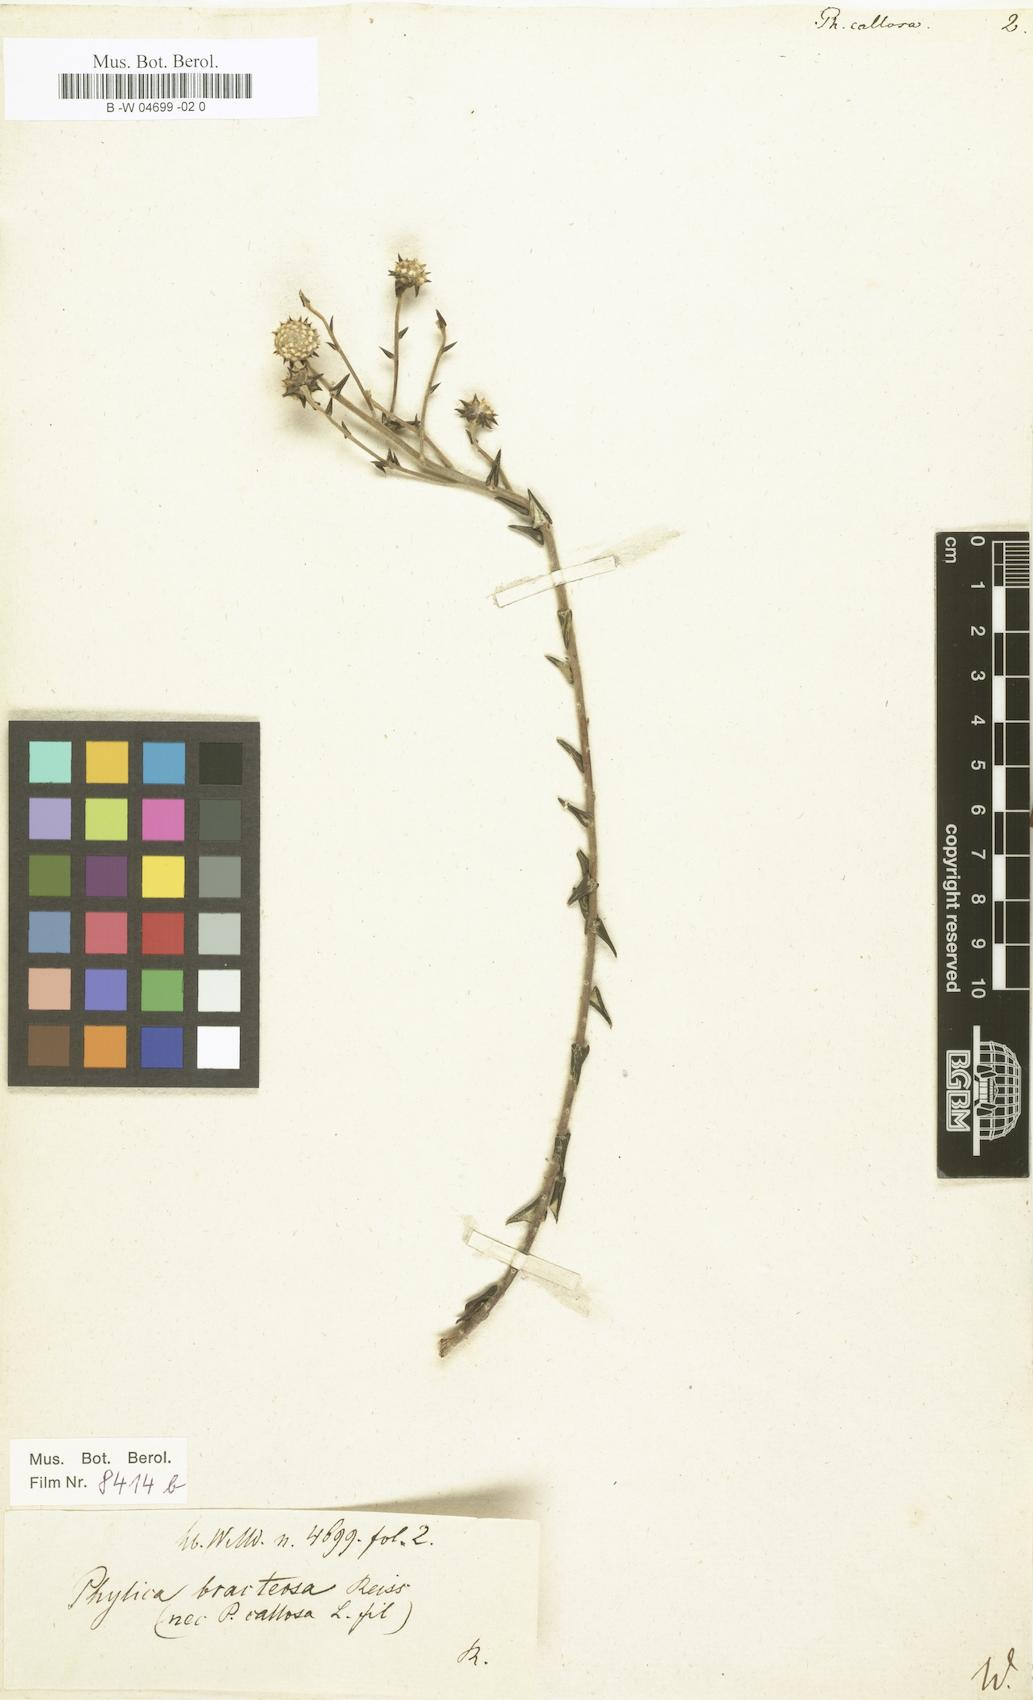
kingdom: Plantae
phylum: Tracheophyta
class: Magnoliopsida
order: Rosales
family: Rhamnaceae
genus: Phylica
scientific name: Phylica callosa
